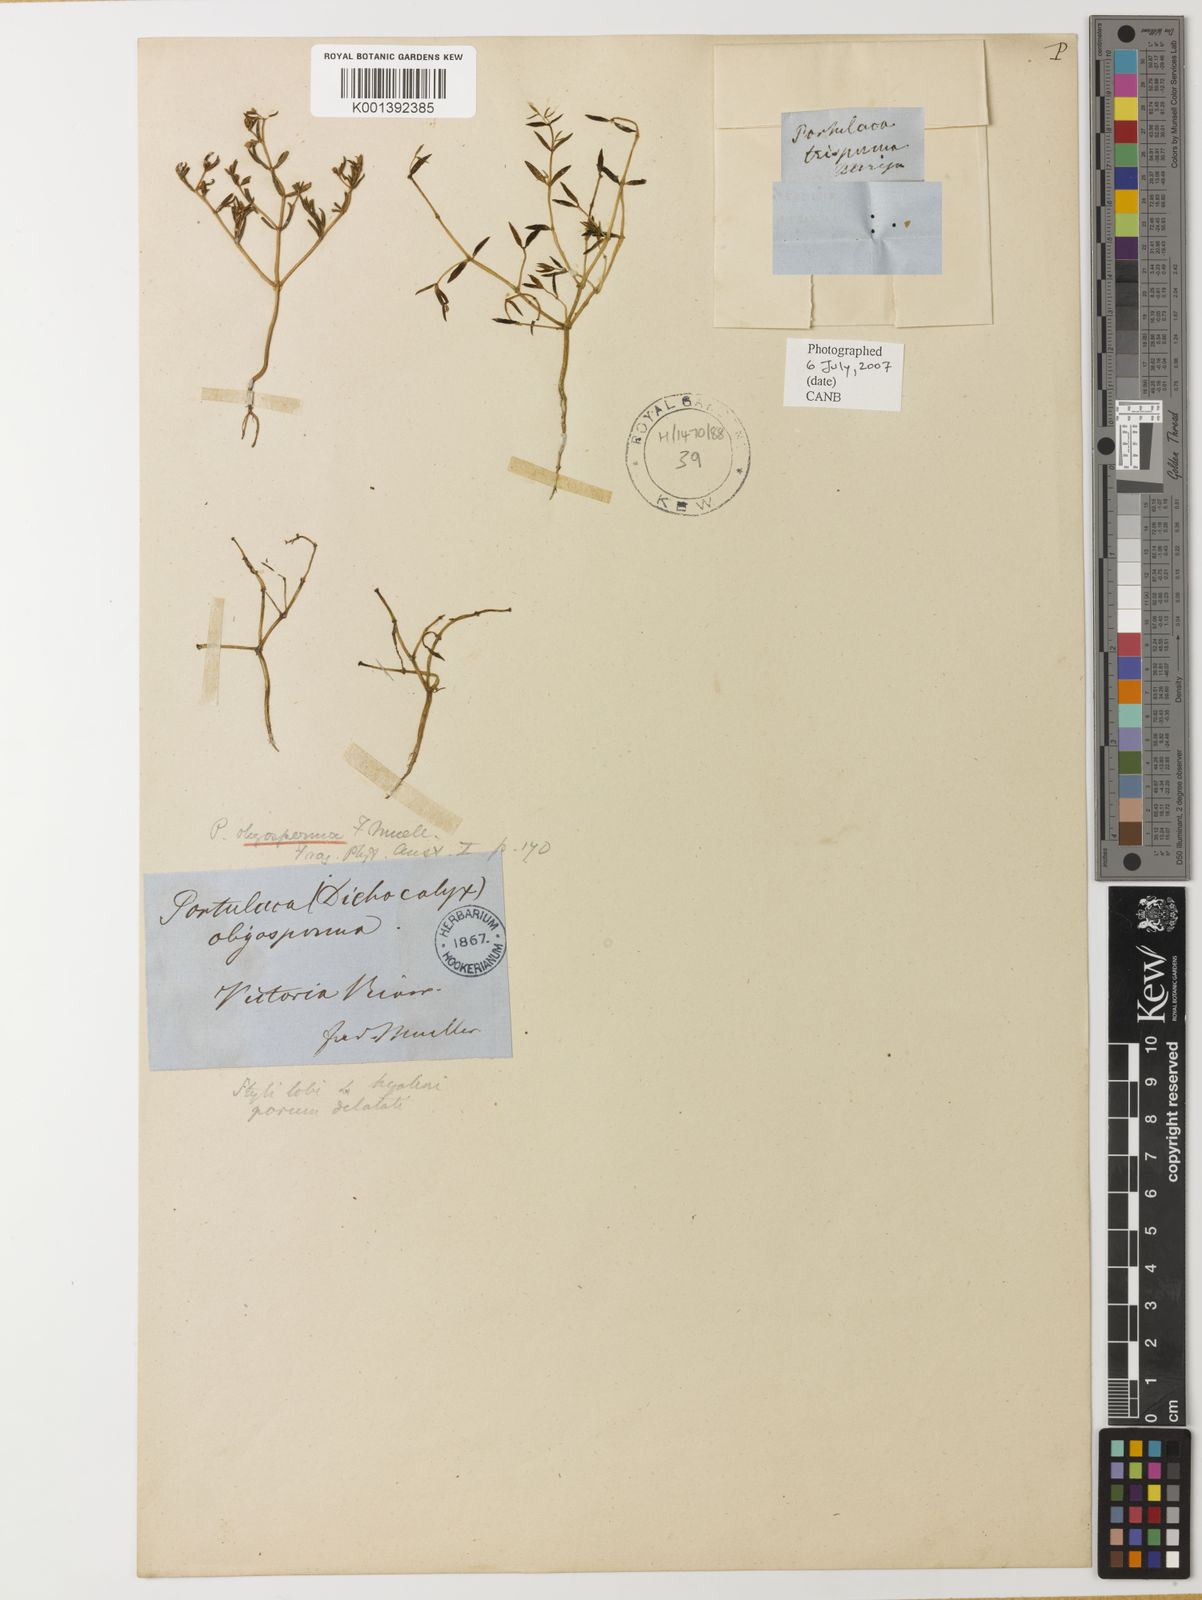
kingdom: Plantae
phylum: Tracheophyta
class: Magnoliopsida
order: Caryophyllales
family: Portulacaceae
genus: Portulaca
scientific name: Portulaca
